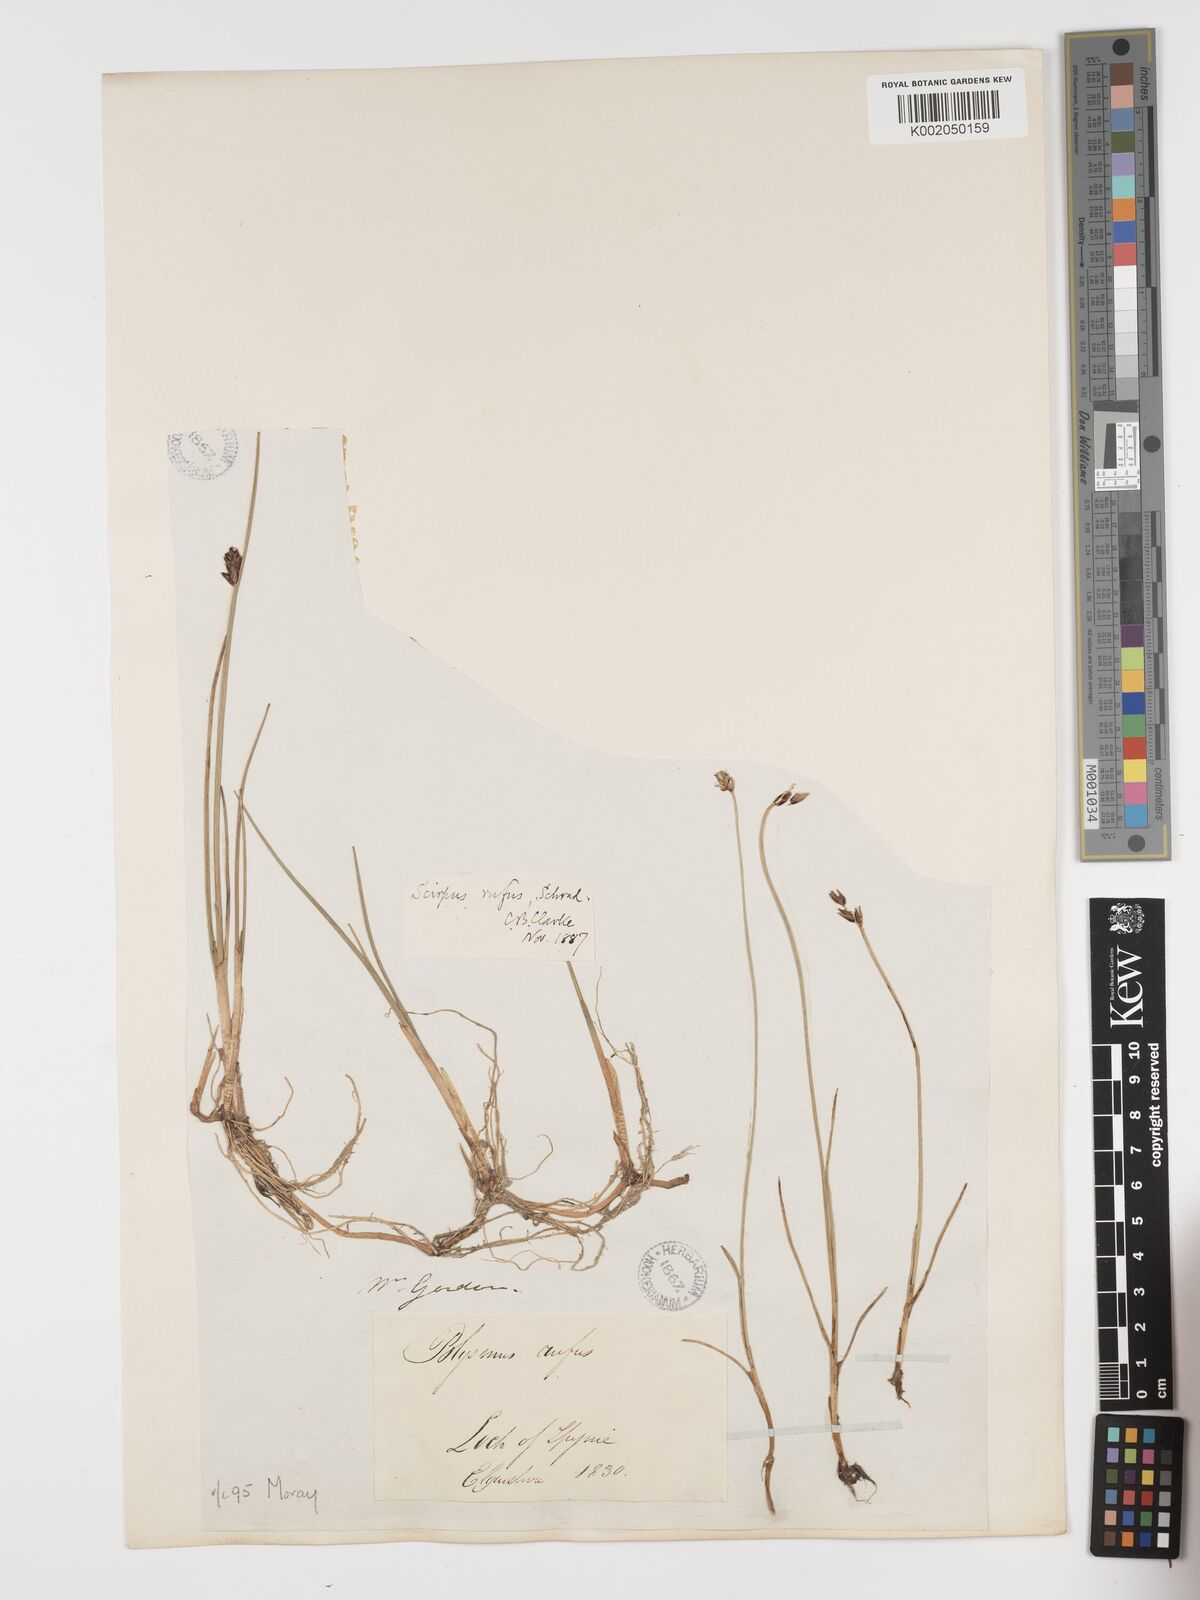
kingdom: Plantae
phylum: Tracheophyta
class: Liliopsida
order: Poales
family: Cyperaceae
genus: Blysmus
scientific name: Blysmus rufus
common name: Saltmarsh flat-sedge
